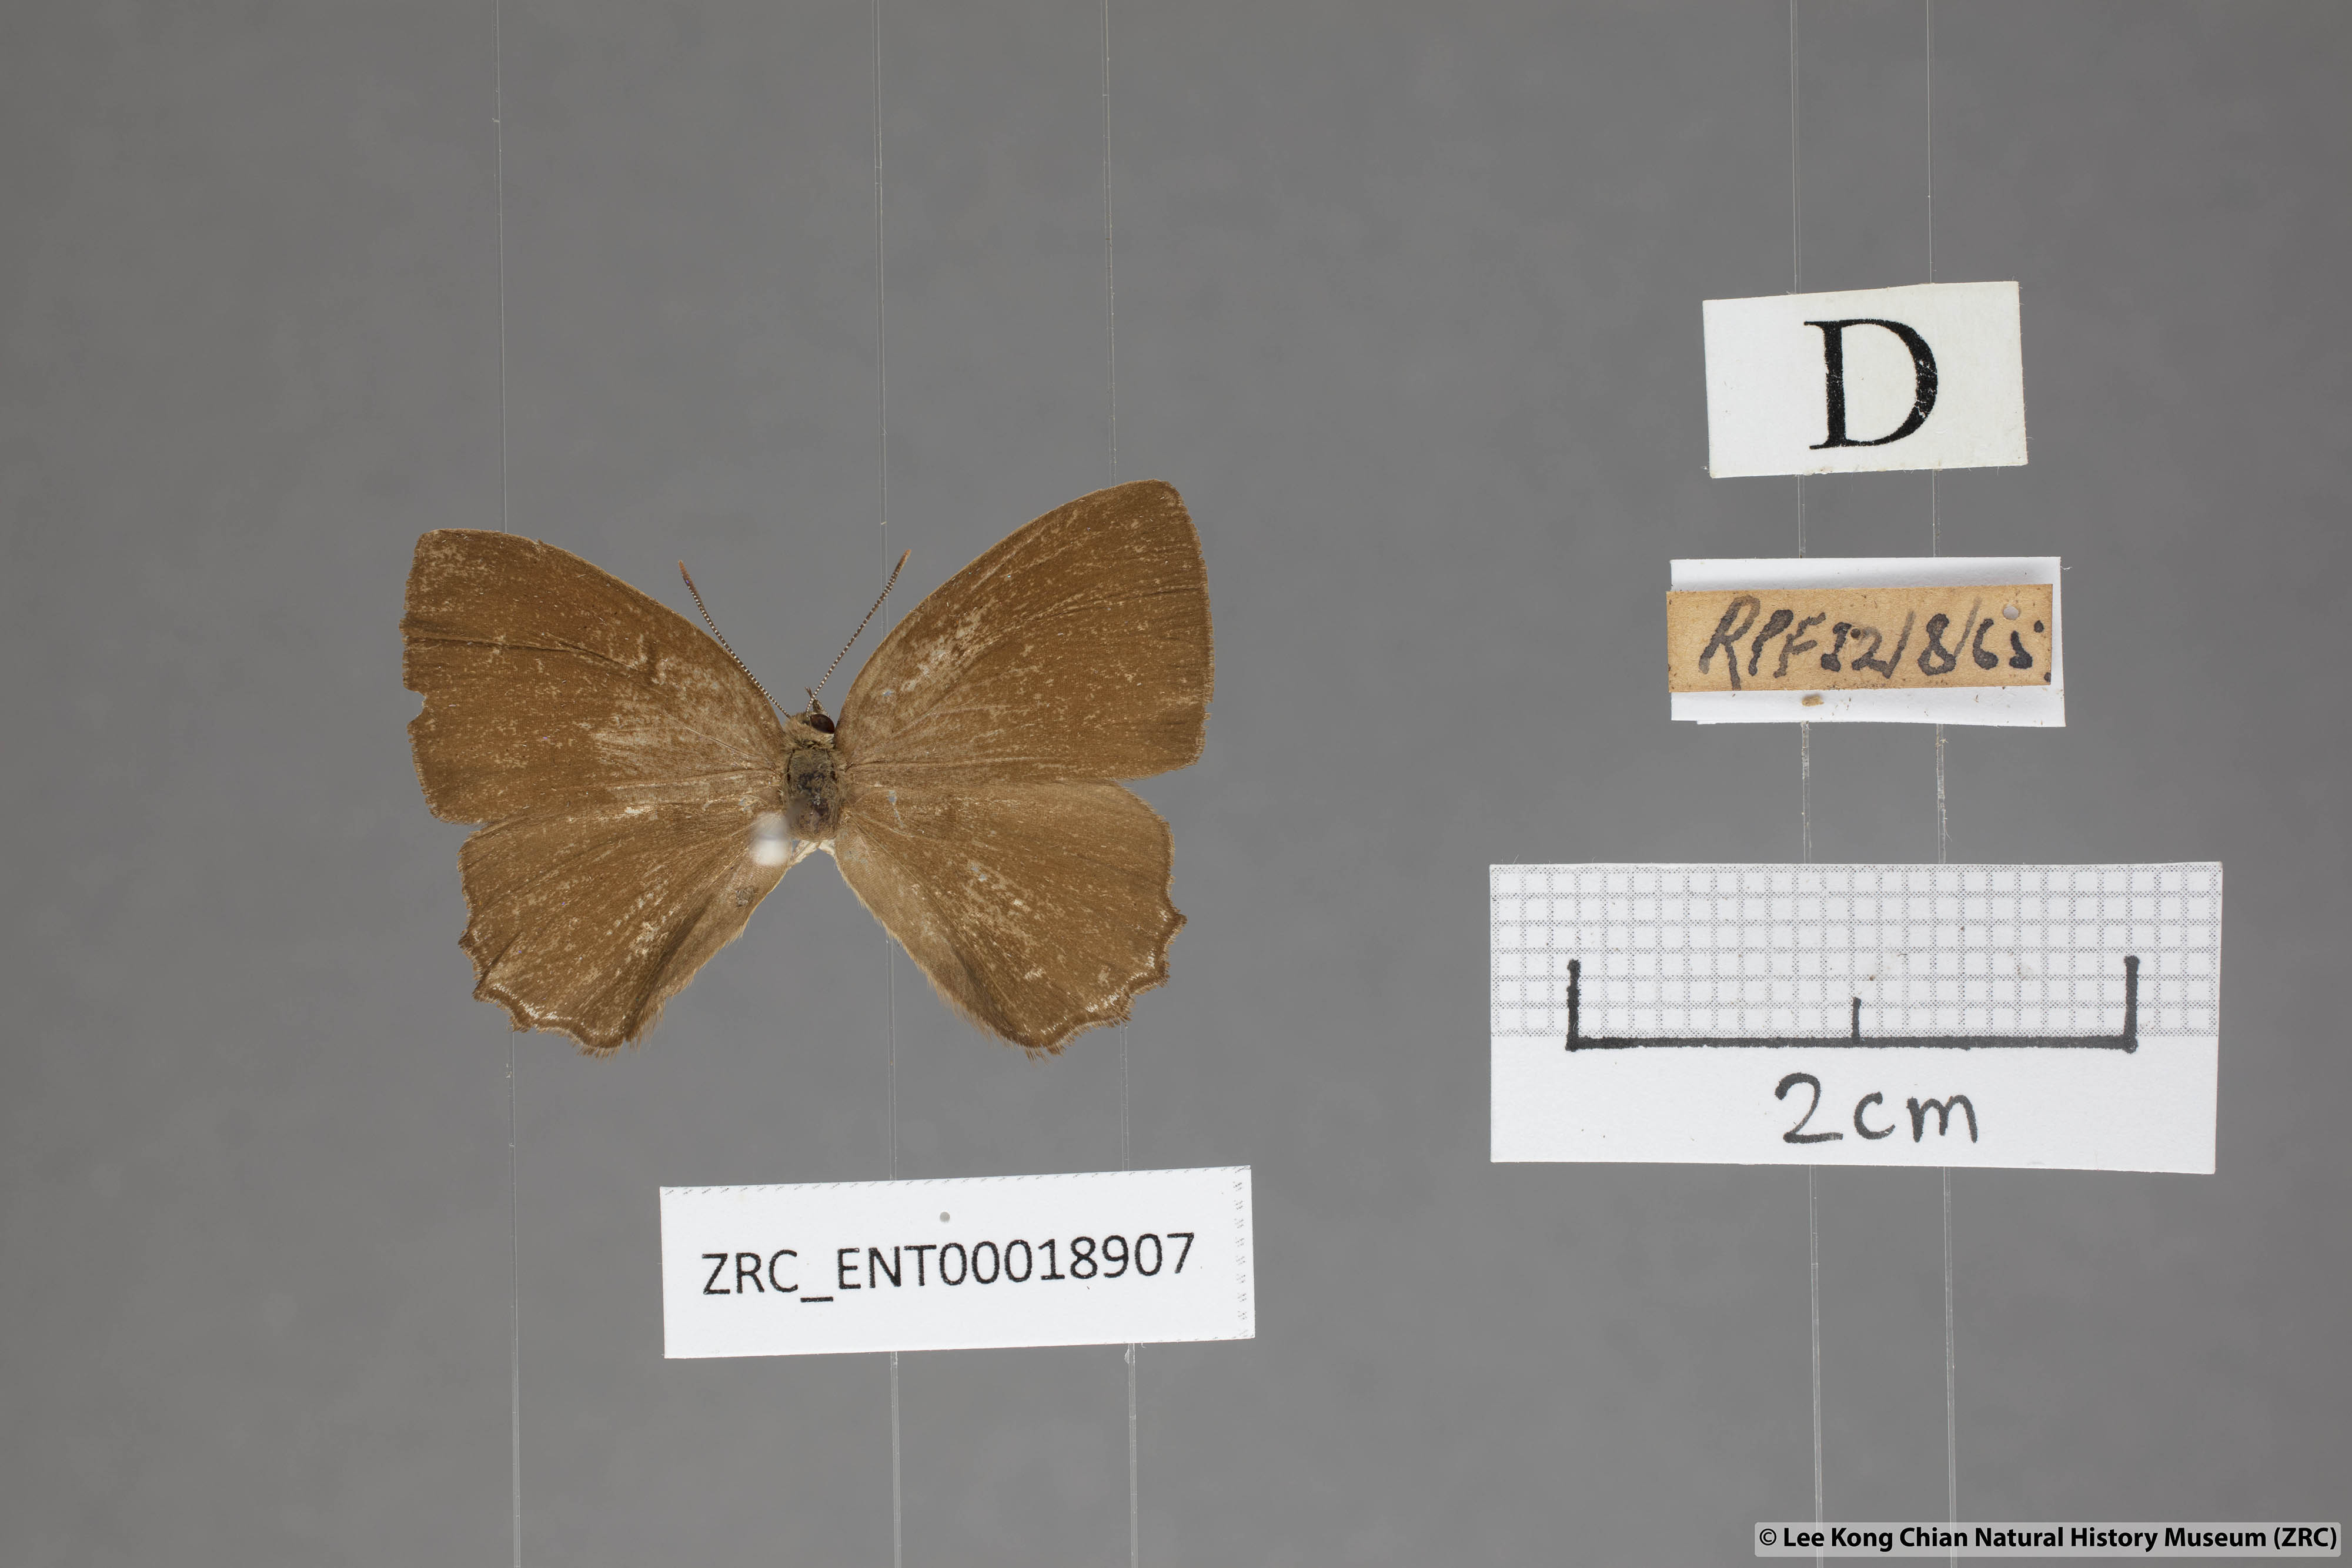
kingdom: Animalia
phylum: Arthropoda
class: Insecta
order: Lepidoptera
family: Lycaenidae
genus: Simiskina
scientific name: Simiskina
